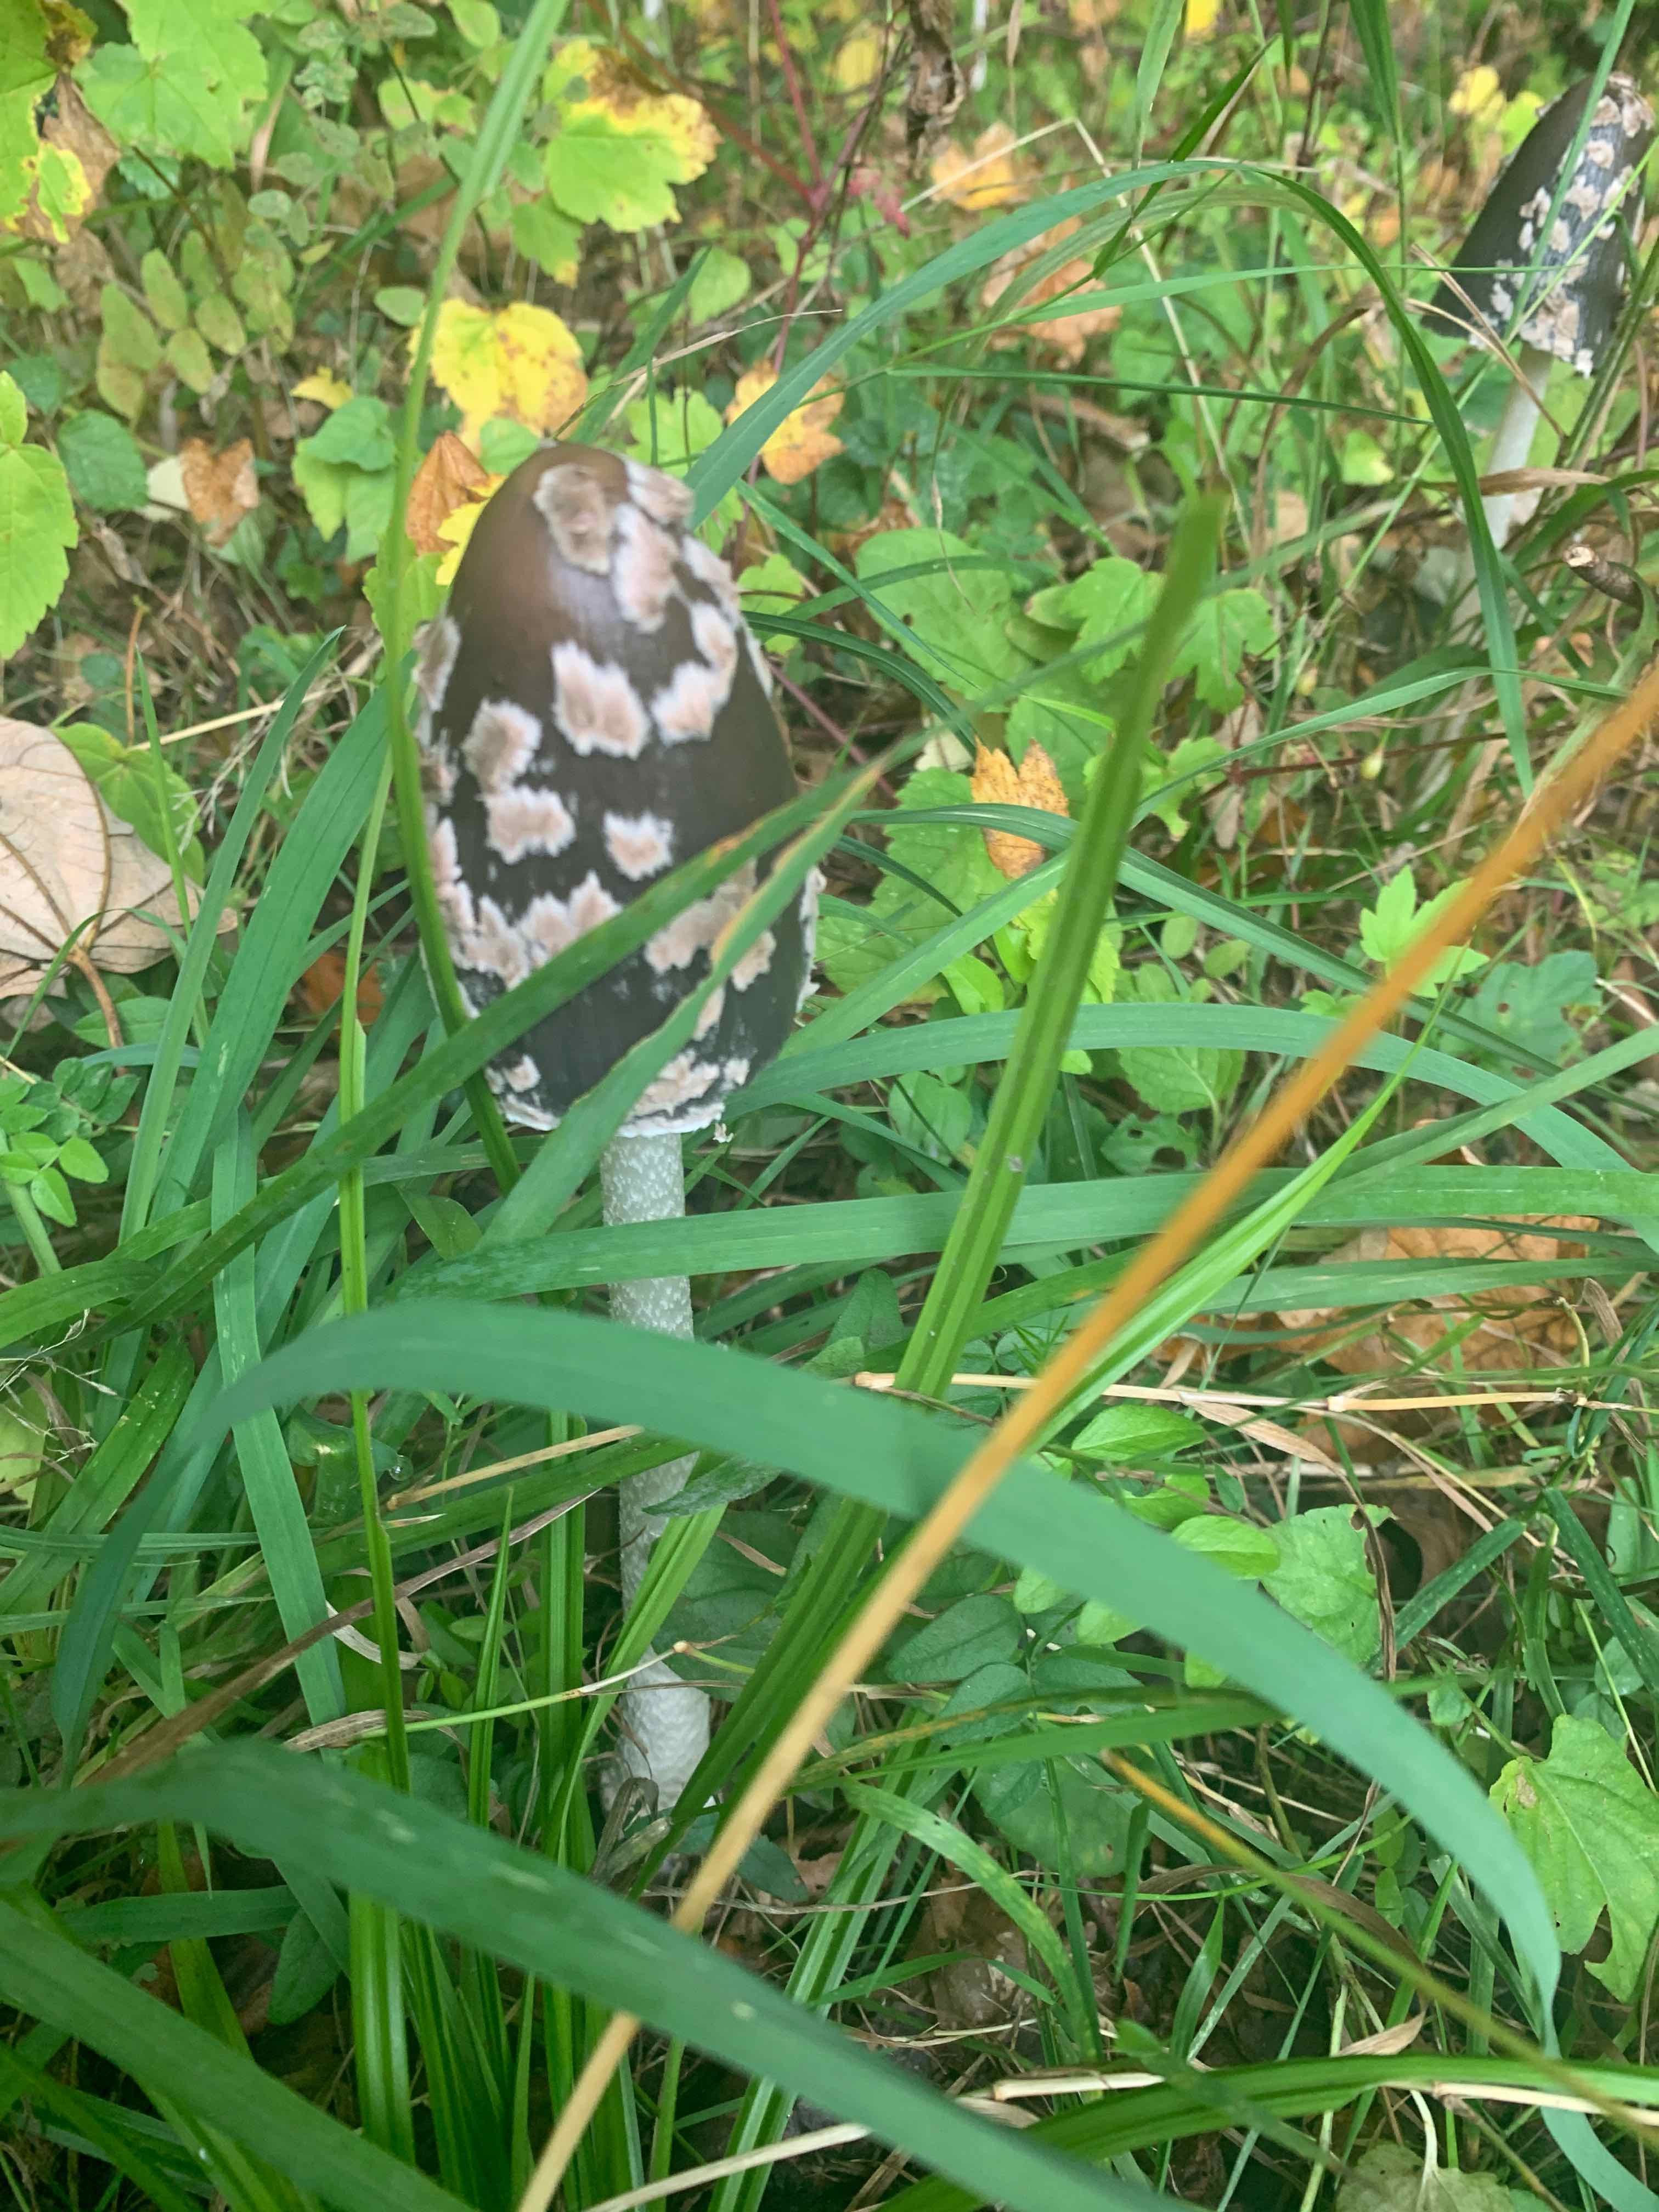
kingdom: Fungi
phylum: Basidiomycota
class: Agaricomycetes
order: Agaricales
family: Psathyrellaceae
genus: Coprinopsis
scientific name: Coprinopsis picacea
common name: skade-blækhat
